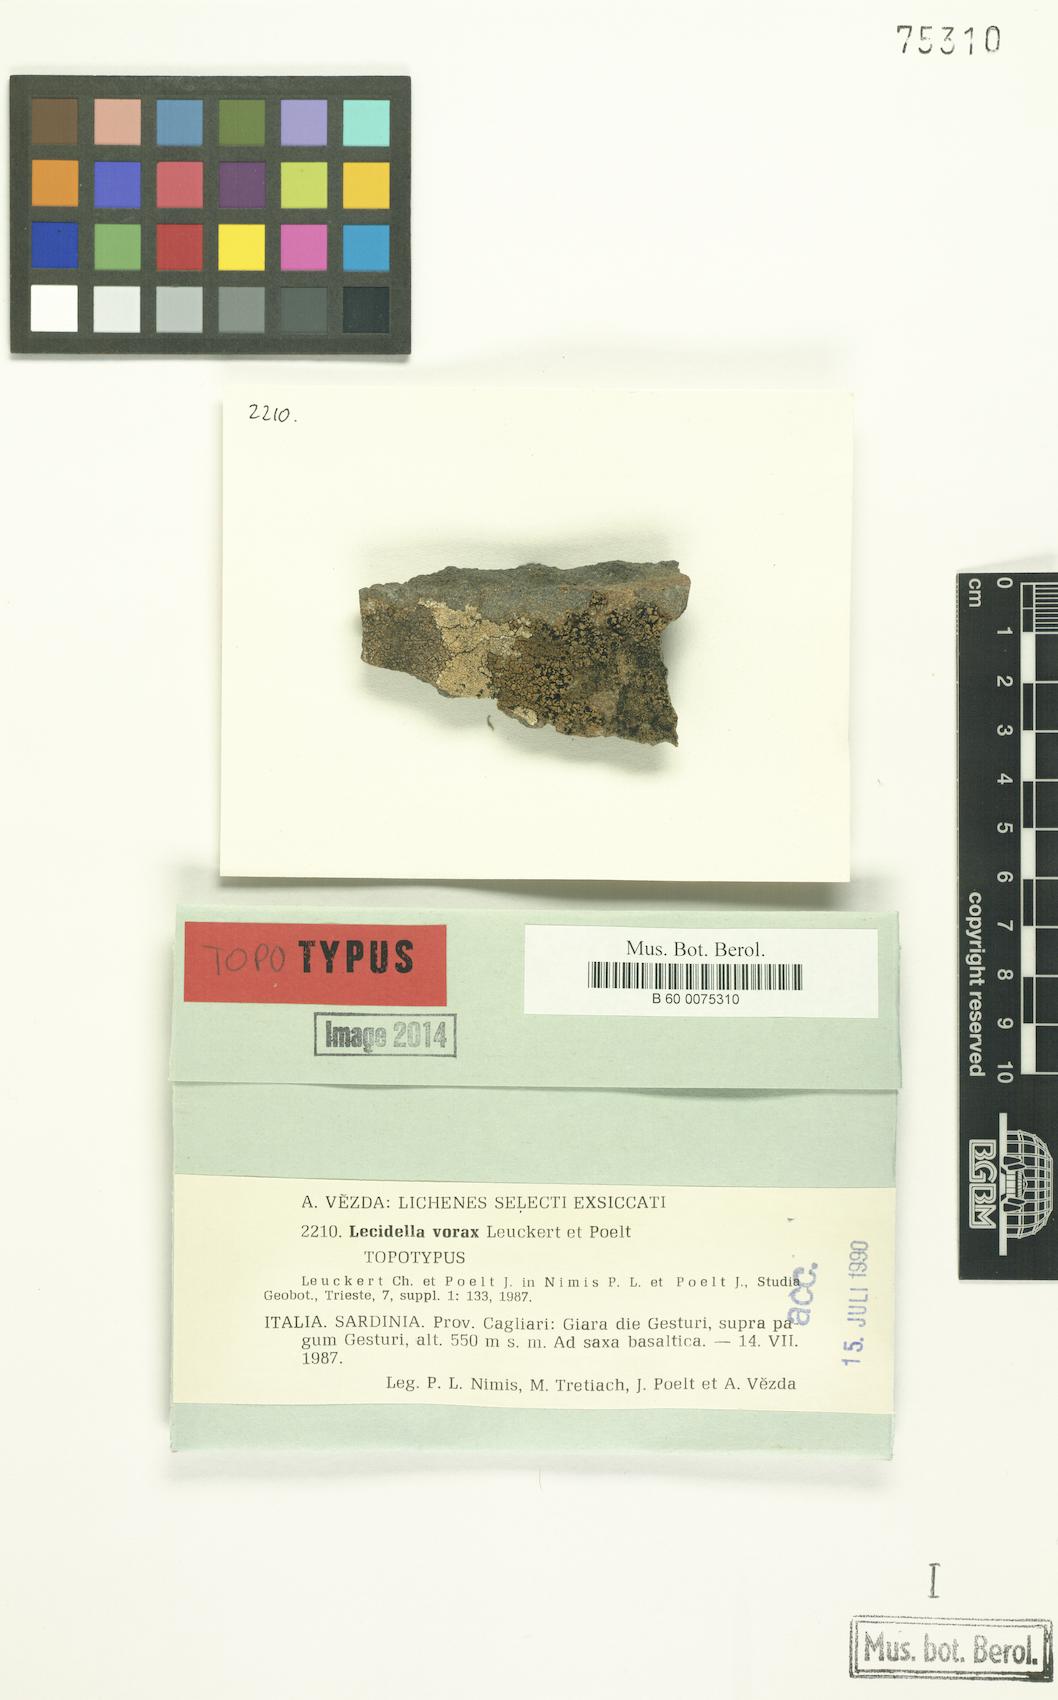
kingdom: Fungi
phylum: Ascomycota
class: Lecanoromycetes
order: Lecanorales
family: Lecanoraceae
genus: Lecidella
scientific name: Lecidella vorax
